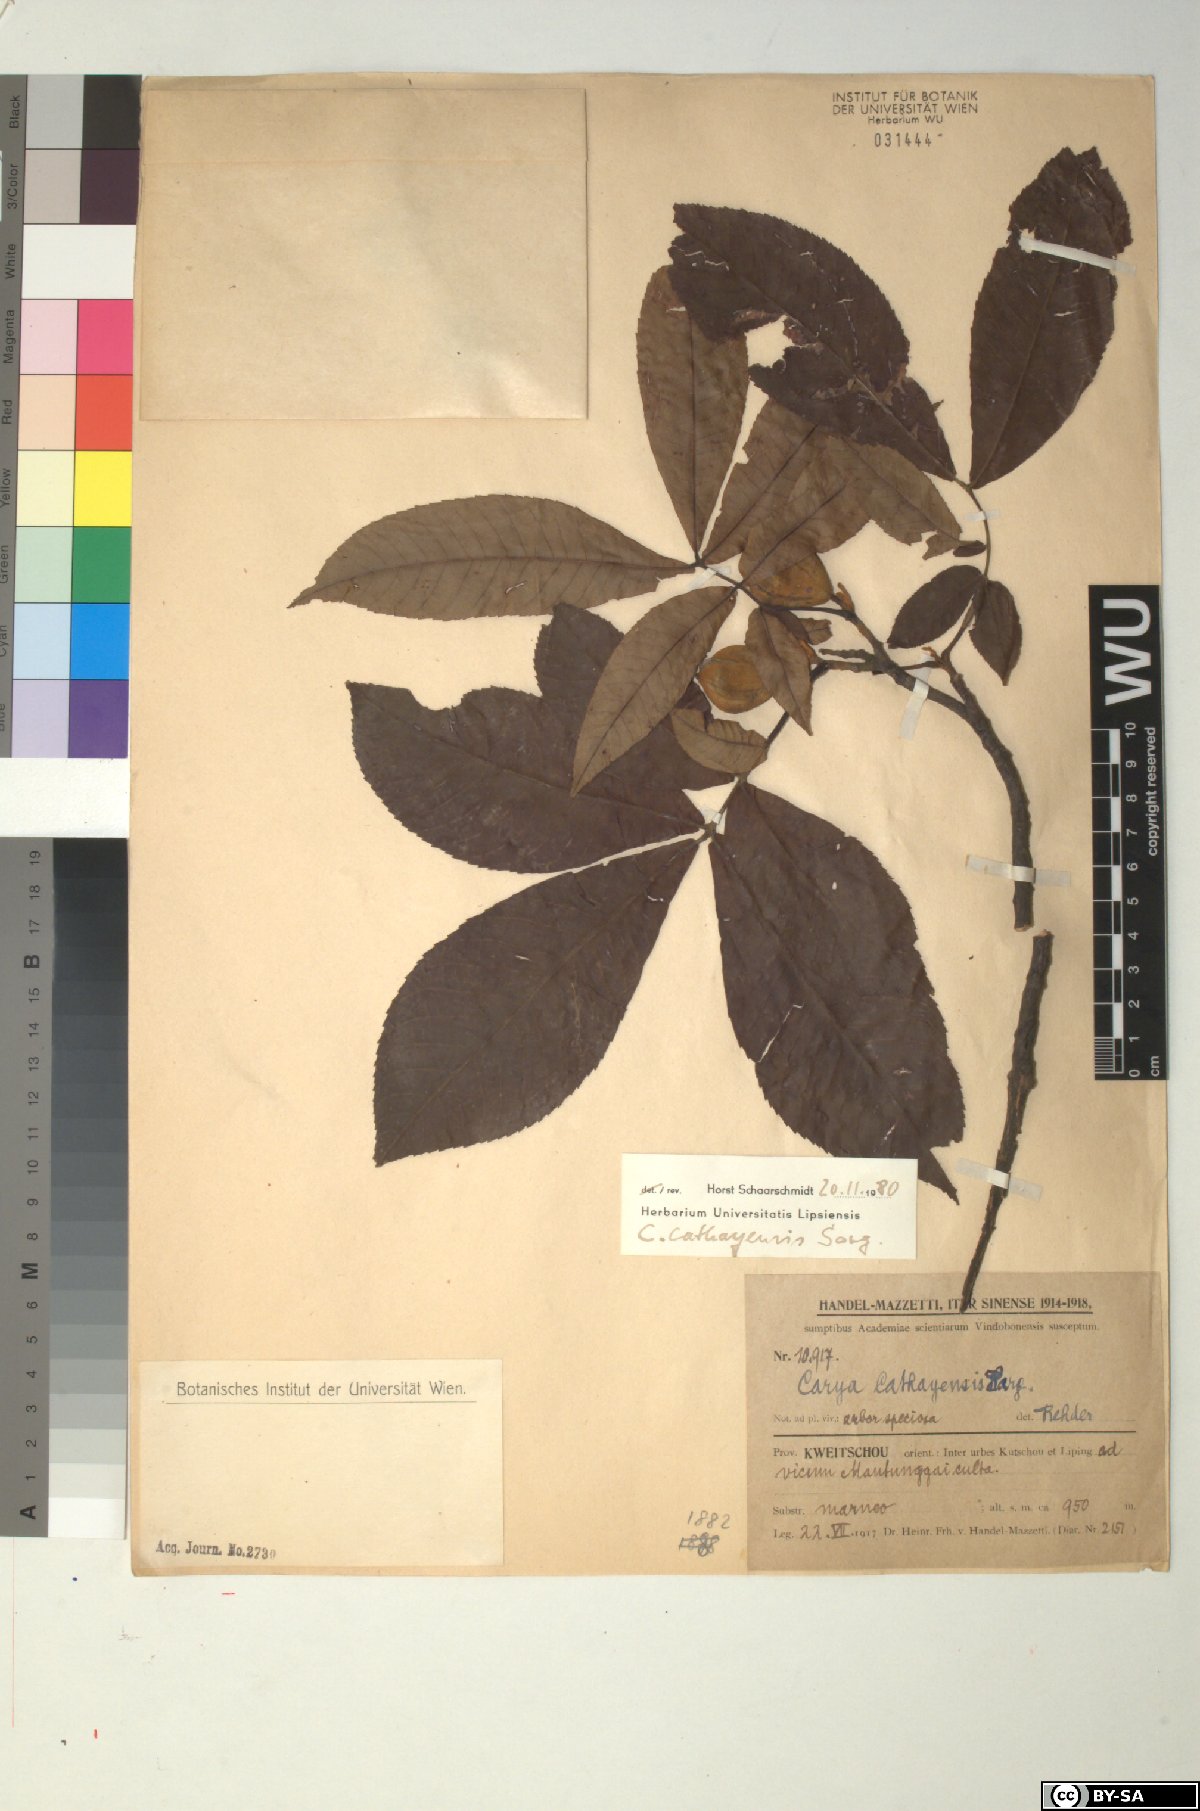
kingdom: Plantae
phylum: Tracheophyta
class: Magnoliopsida
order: Fagales
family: Juglandaceae
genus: Carya
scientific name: Carya cathayensis
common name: Cathay hickory
